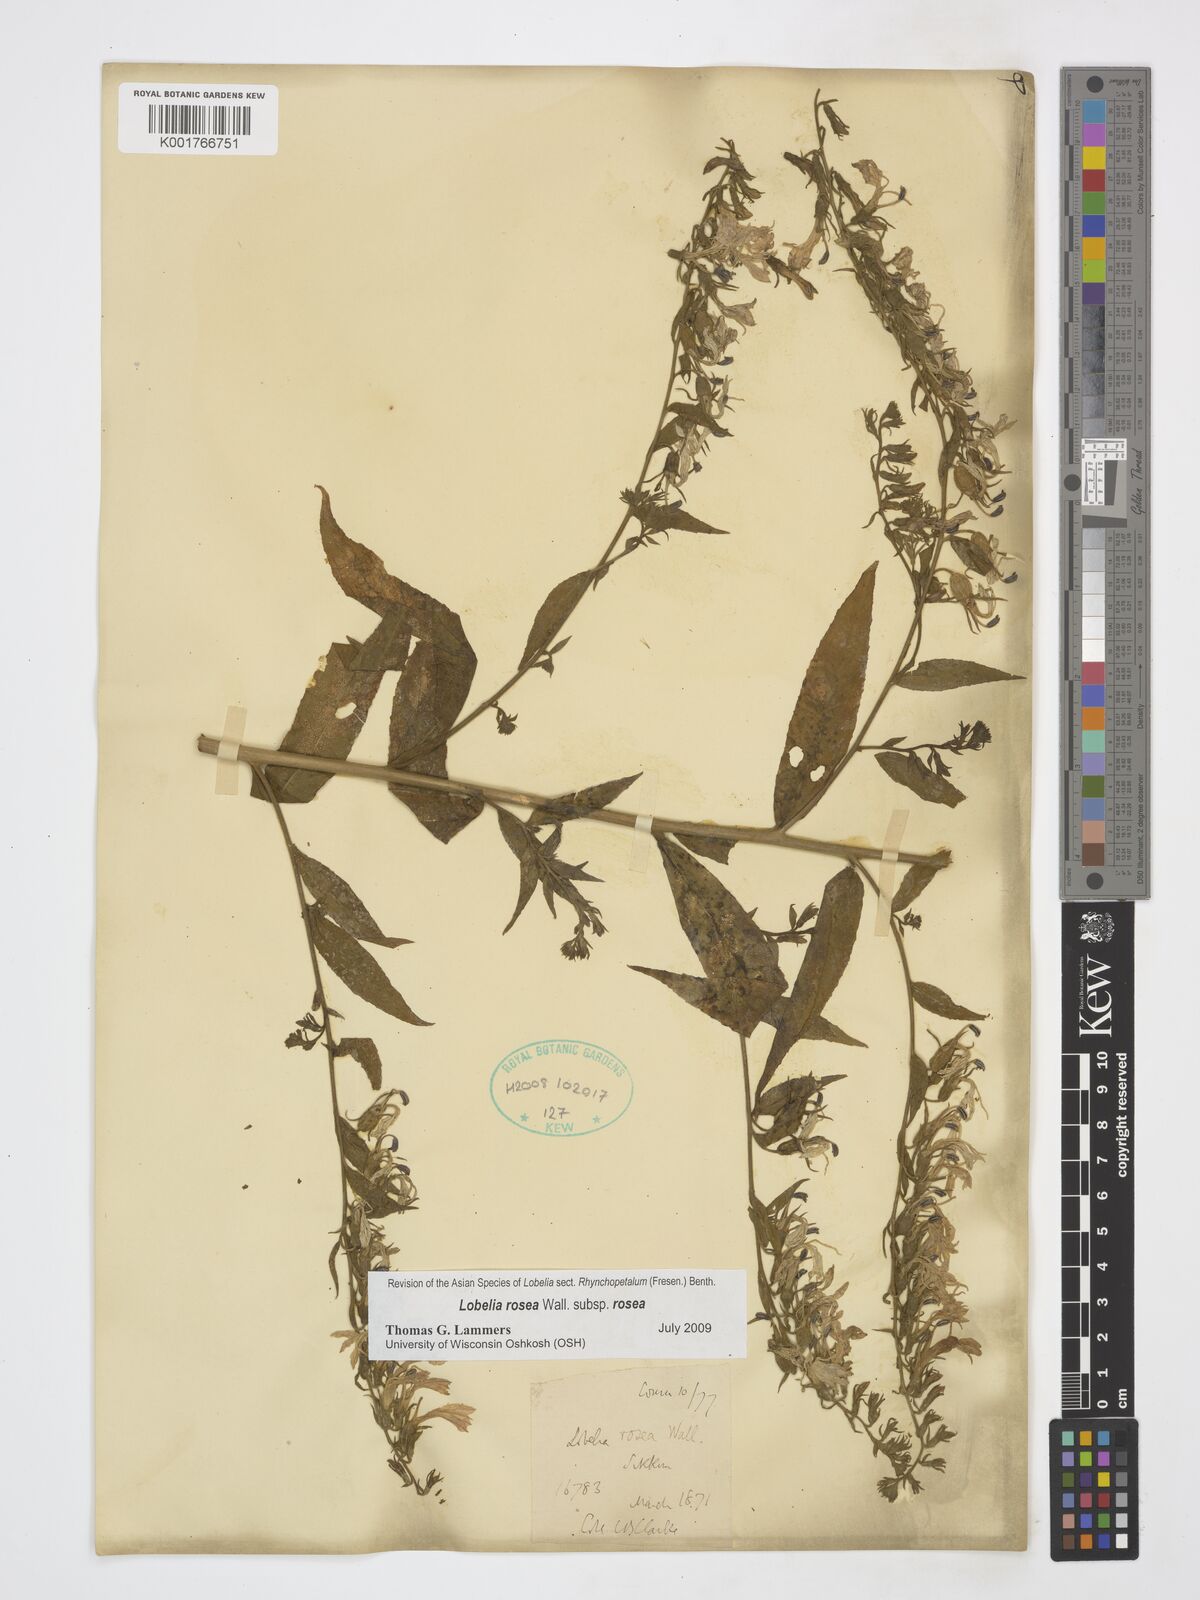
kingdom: Plantae
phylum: Tracheophyta
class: Magnoliopsida
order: Asterales
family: Campanulaceae
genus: Lobelia
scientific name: Lobelia rosea
